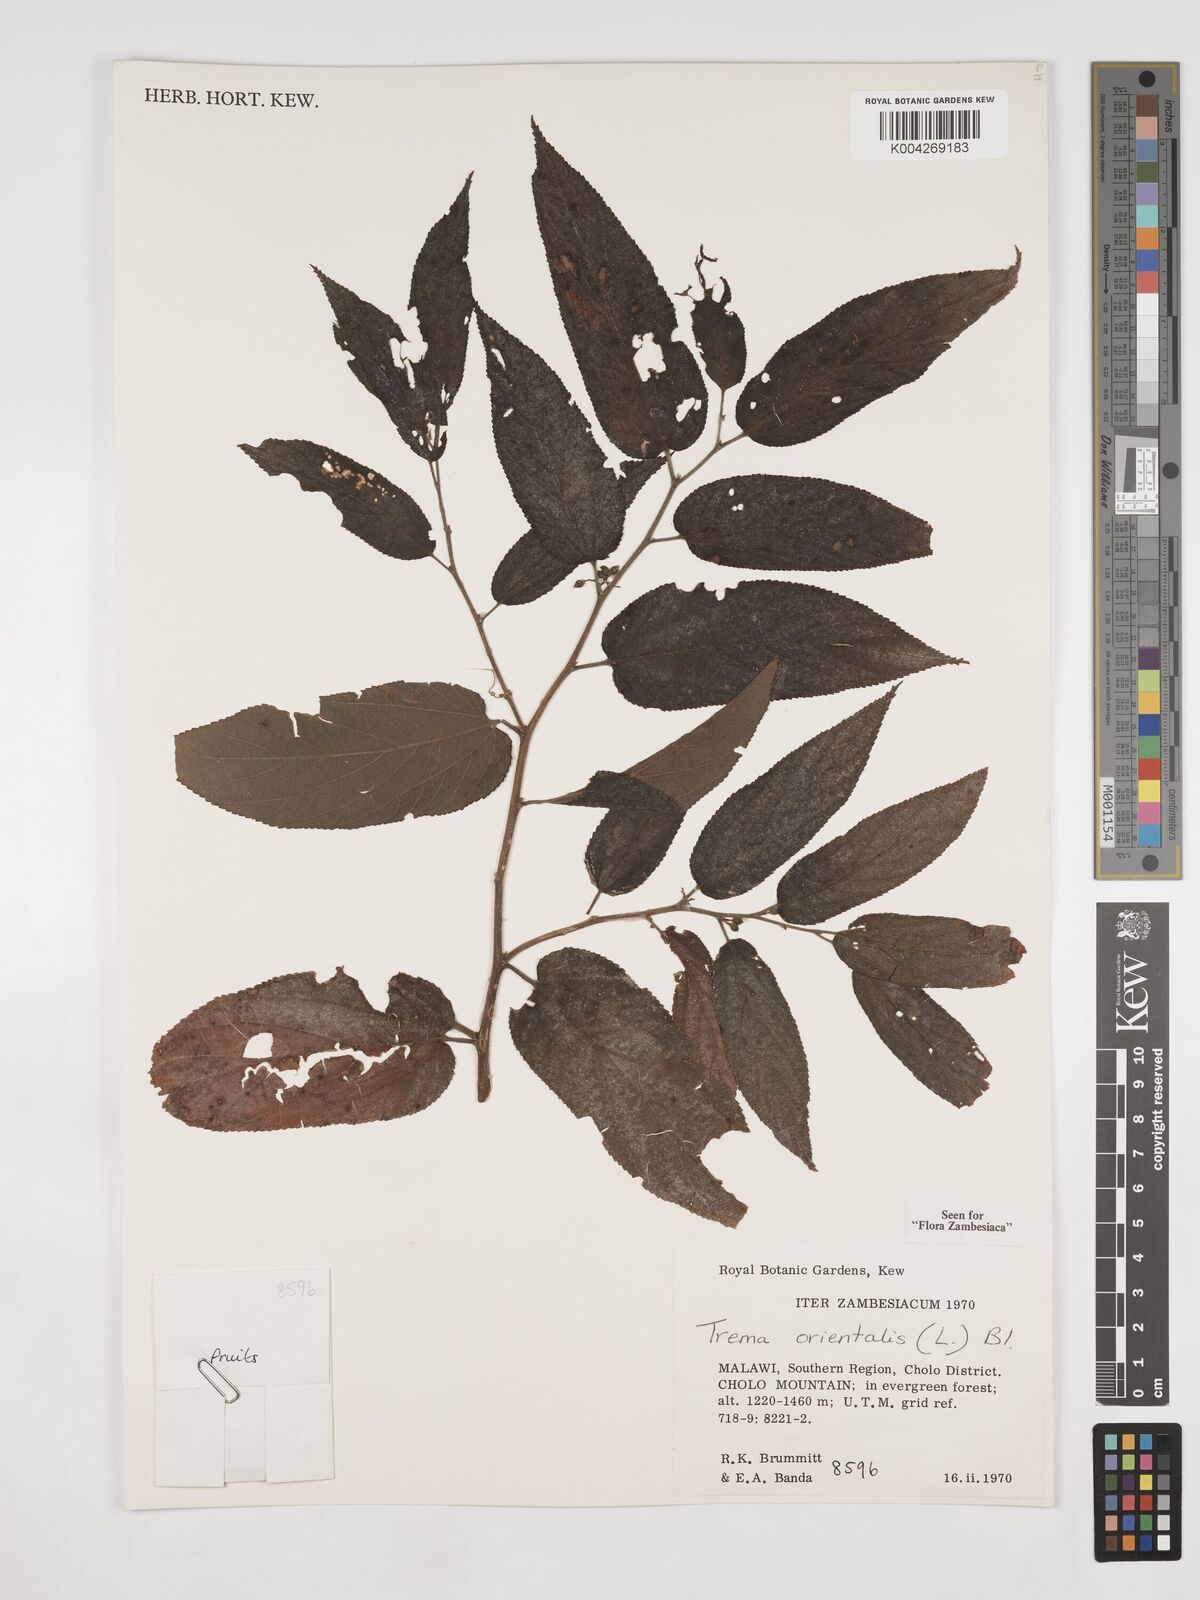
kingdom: Plantae
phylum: Tracheophyta
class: Magnoliopsida
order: Rosales
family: Cannabaceae
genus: Trema
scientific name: Trema orientale
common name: Indian charcoal tree
